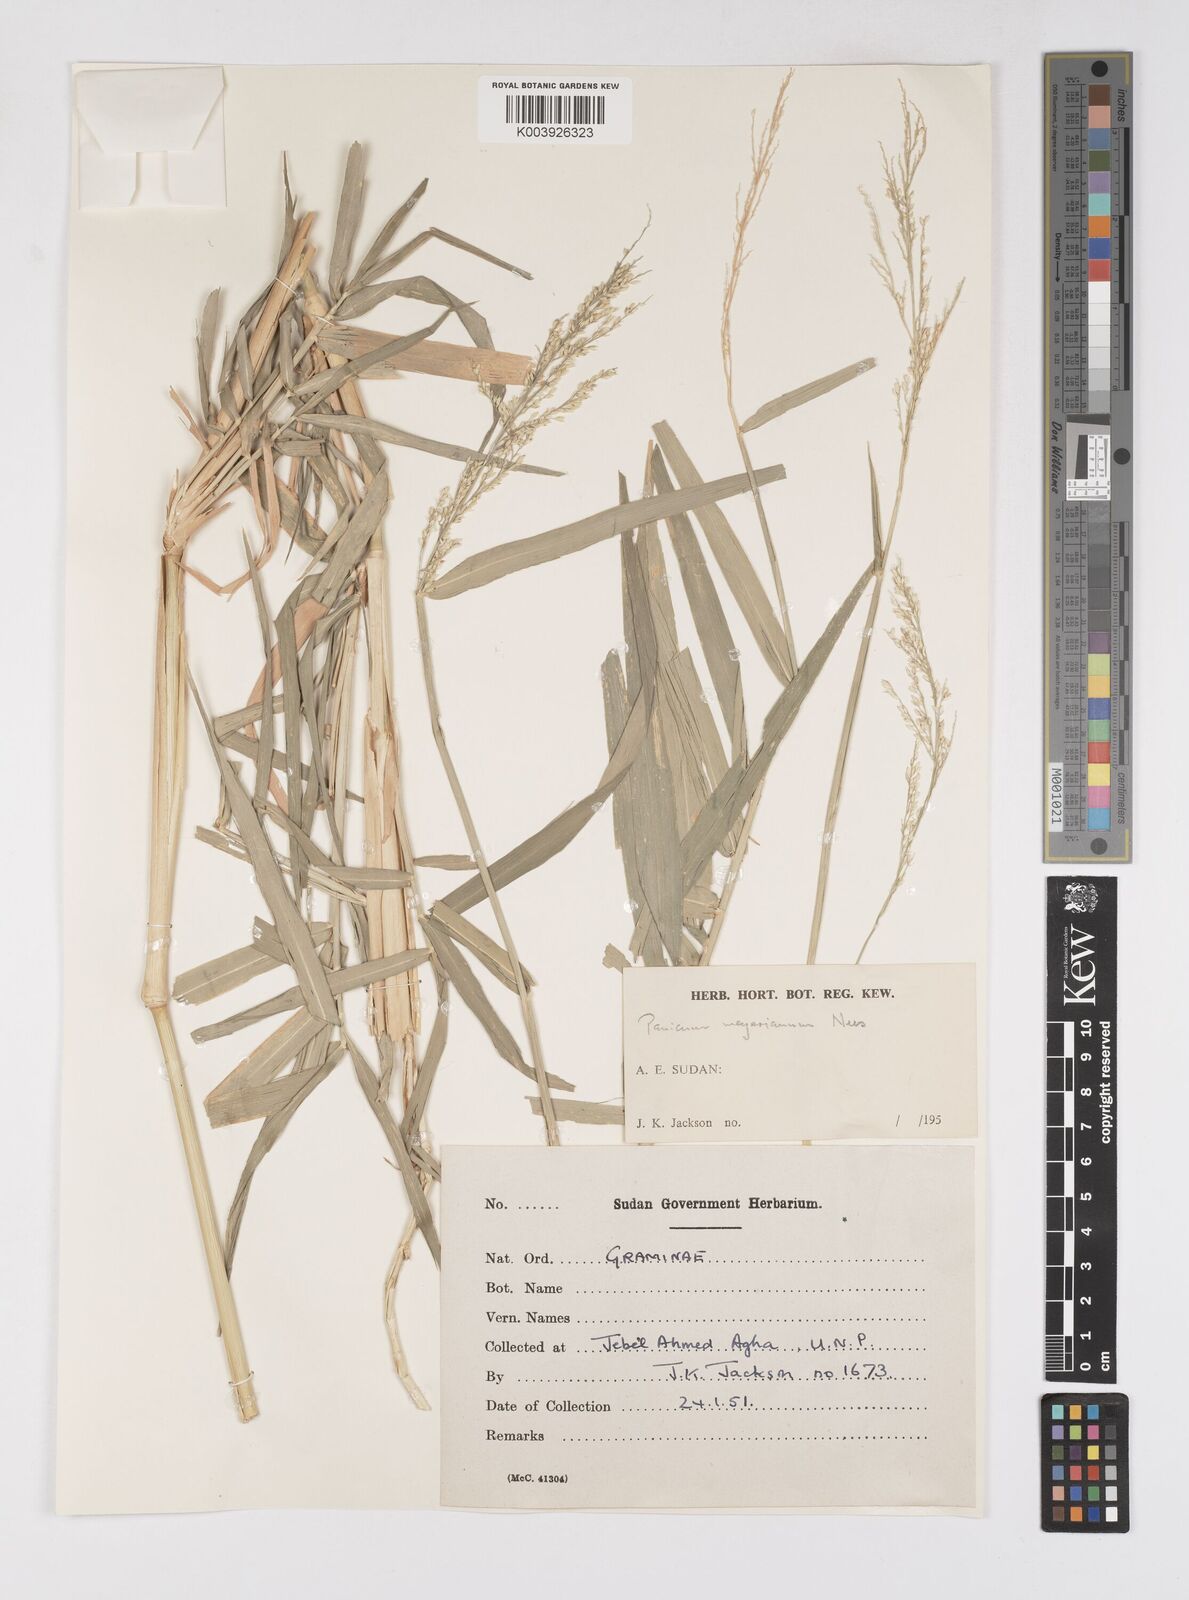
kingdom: Plantae
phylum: Tracheophyta
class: Liliopsida
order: Poales
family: Poaceae
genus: Eriochloa
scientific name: Eriochloa meyeriana
